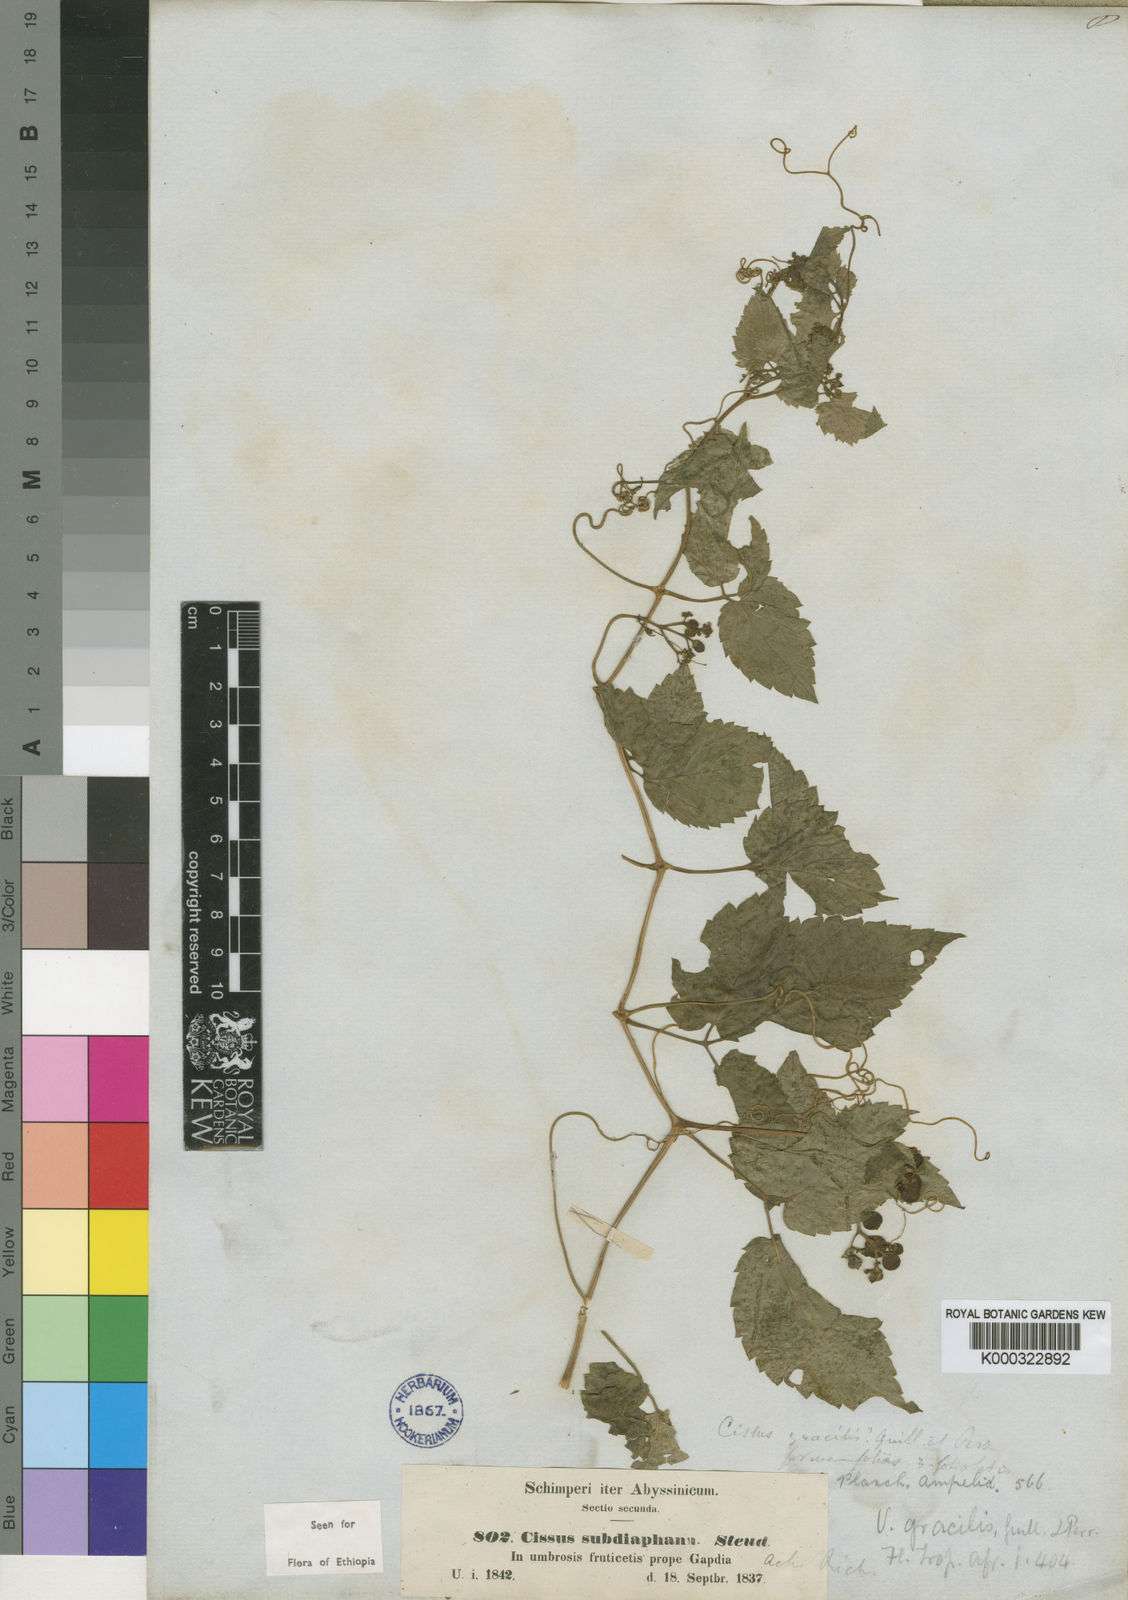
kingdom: Plantae
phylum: Tracheophyta
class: Magnoliopsida
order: Vitales
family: Vitaceae
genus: Afrocayratia
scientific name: Afrocayratia gracilis
